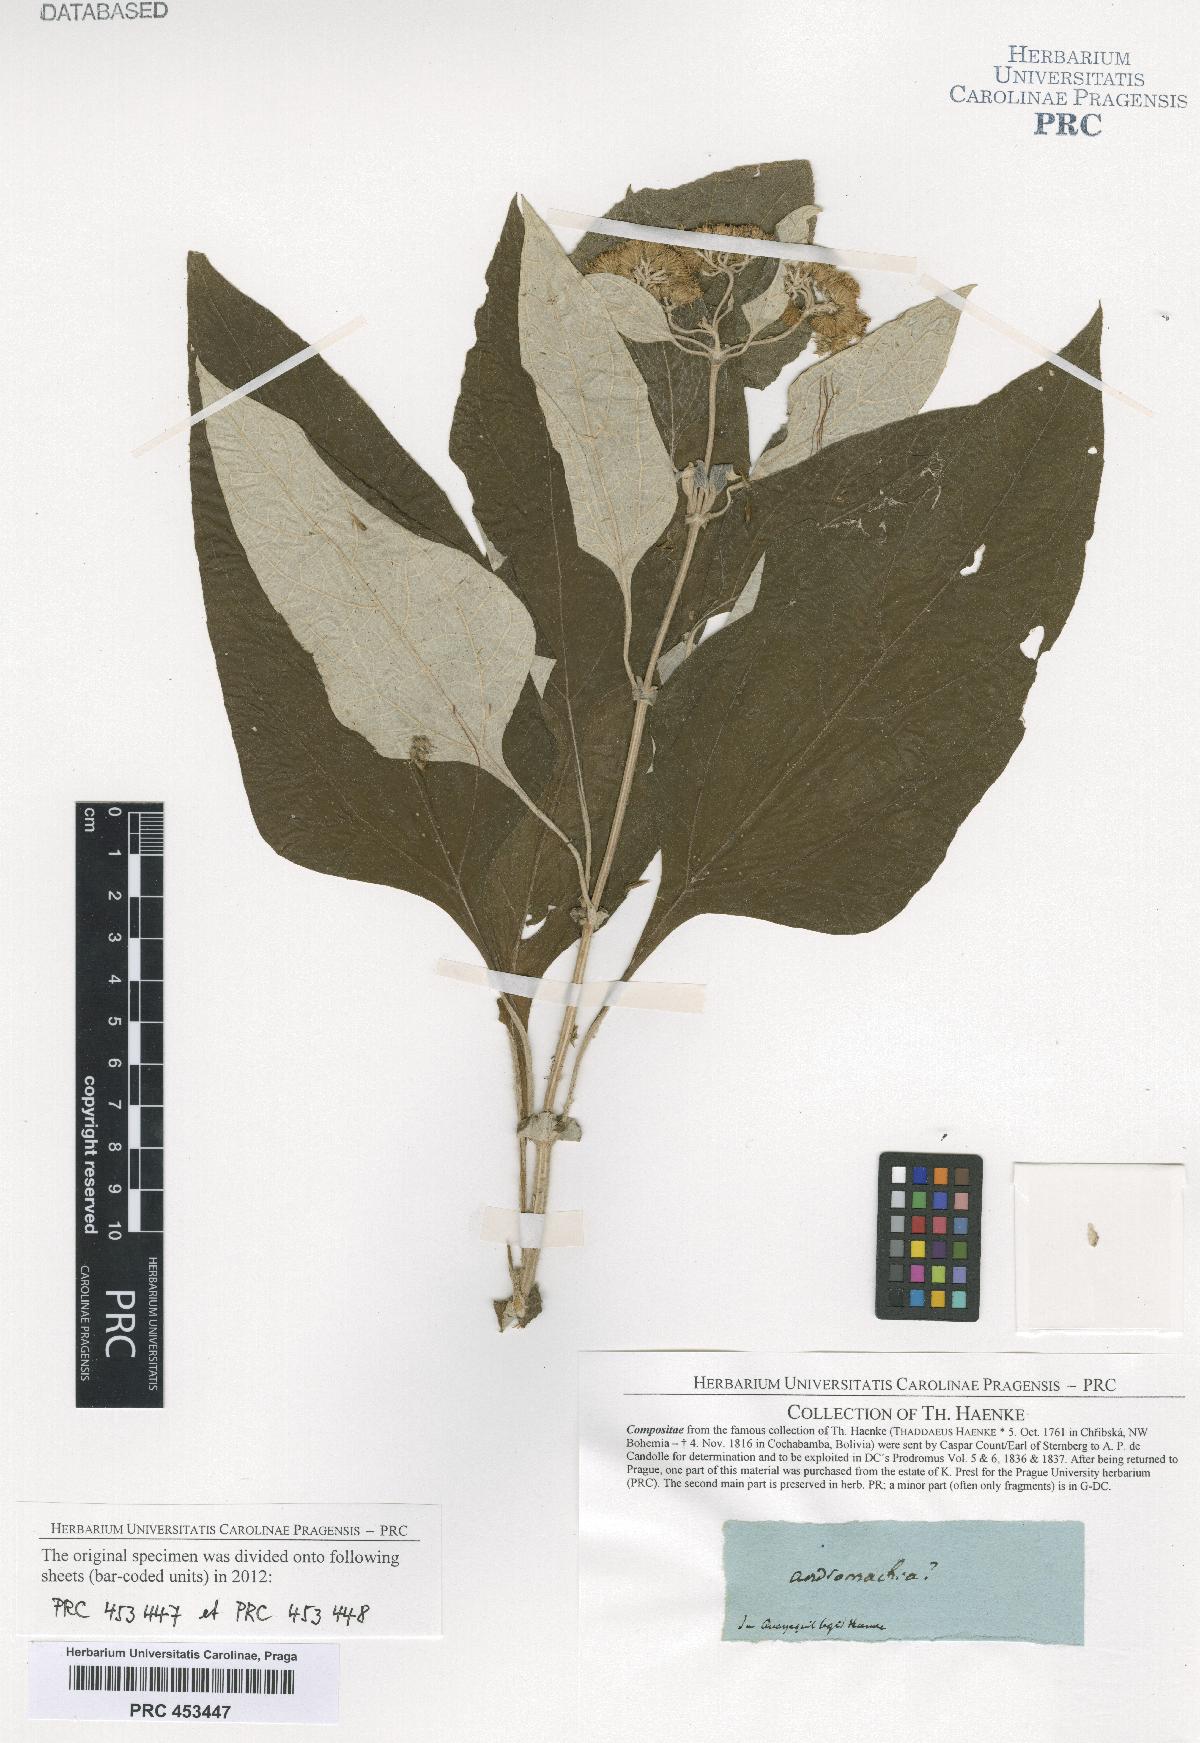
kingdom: Plantae
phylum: Tracheophyta
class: Magnoliopsida
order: Asterales
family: Asteraceae
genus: Andromachia
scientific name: Andromachia
